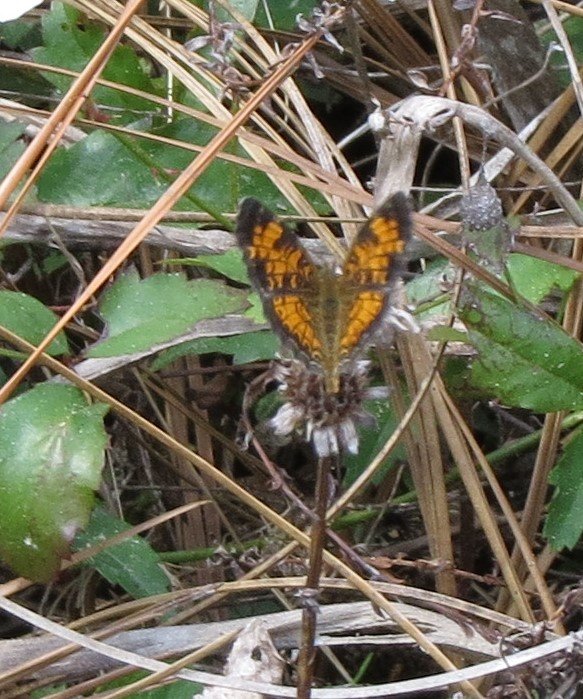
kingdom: Animalia
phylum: Arthropoda
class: Insecta
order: Lepidoptera
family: Nymphalidae
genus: Phyciodes
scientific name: Phyciodes tharos
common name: Pearl Crescent
